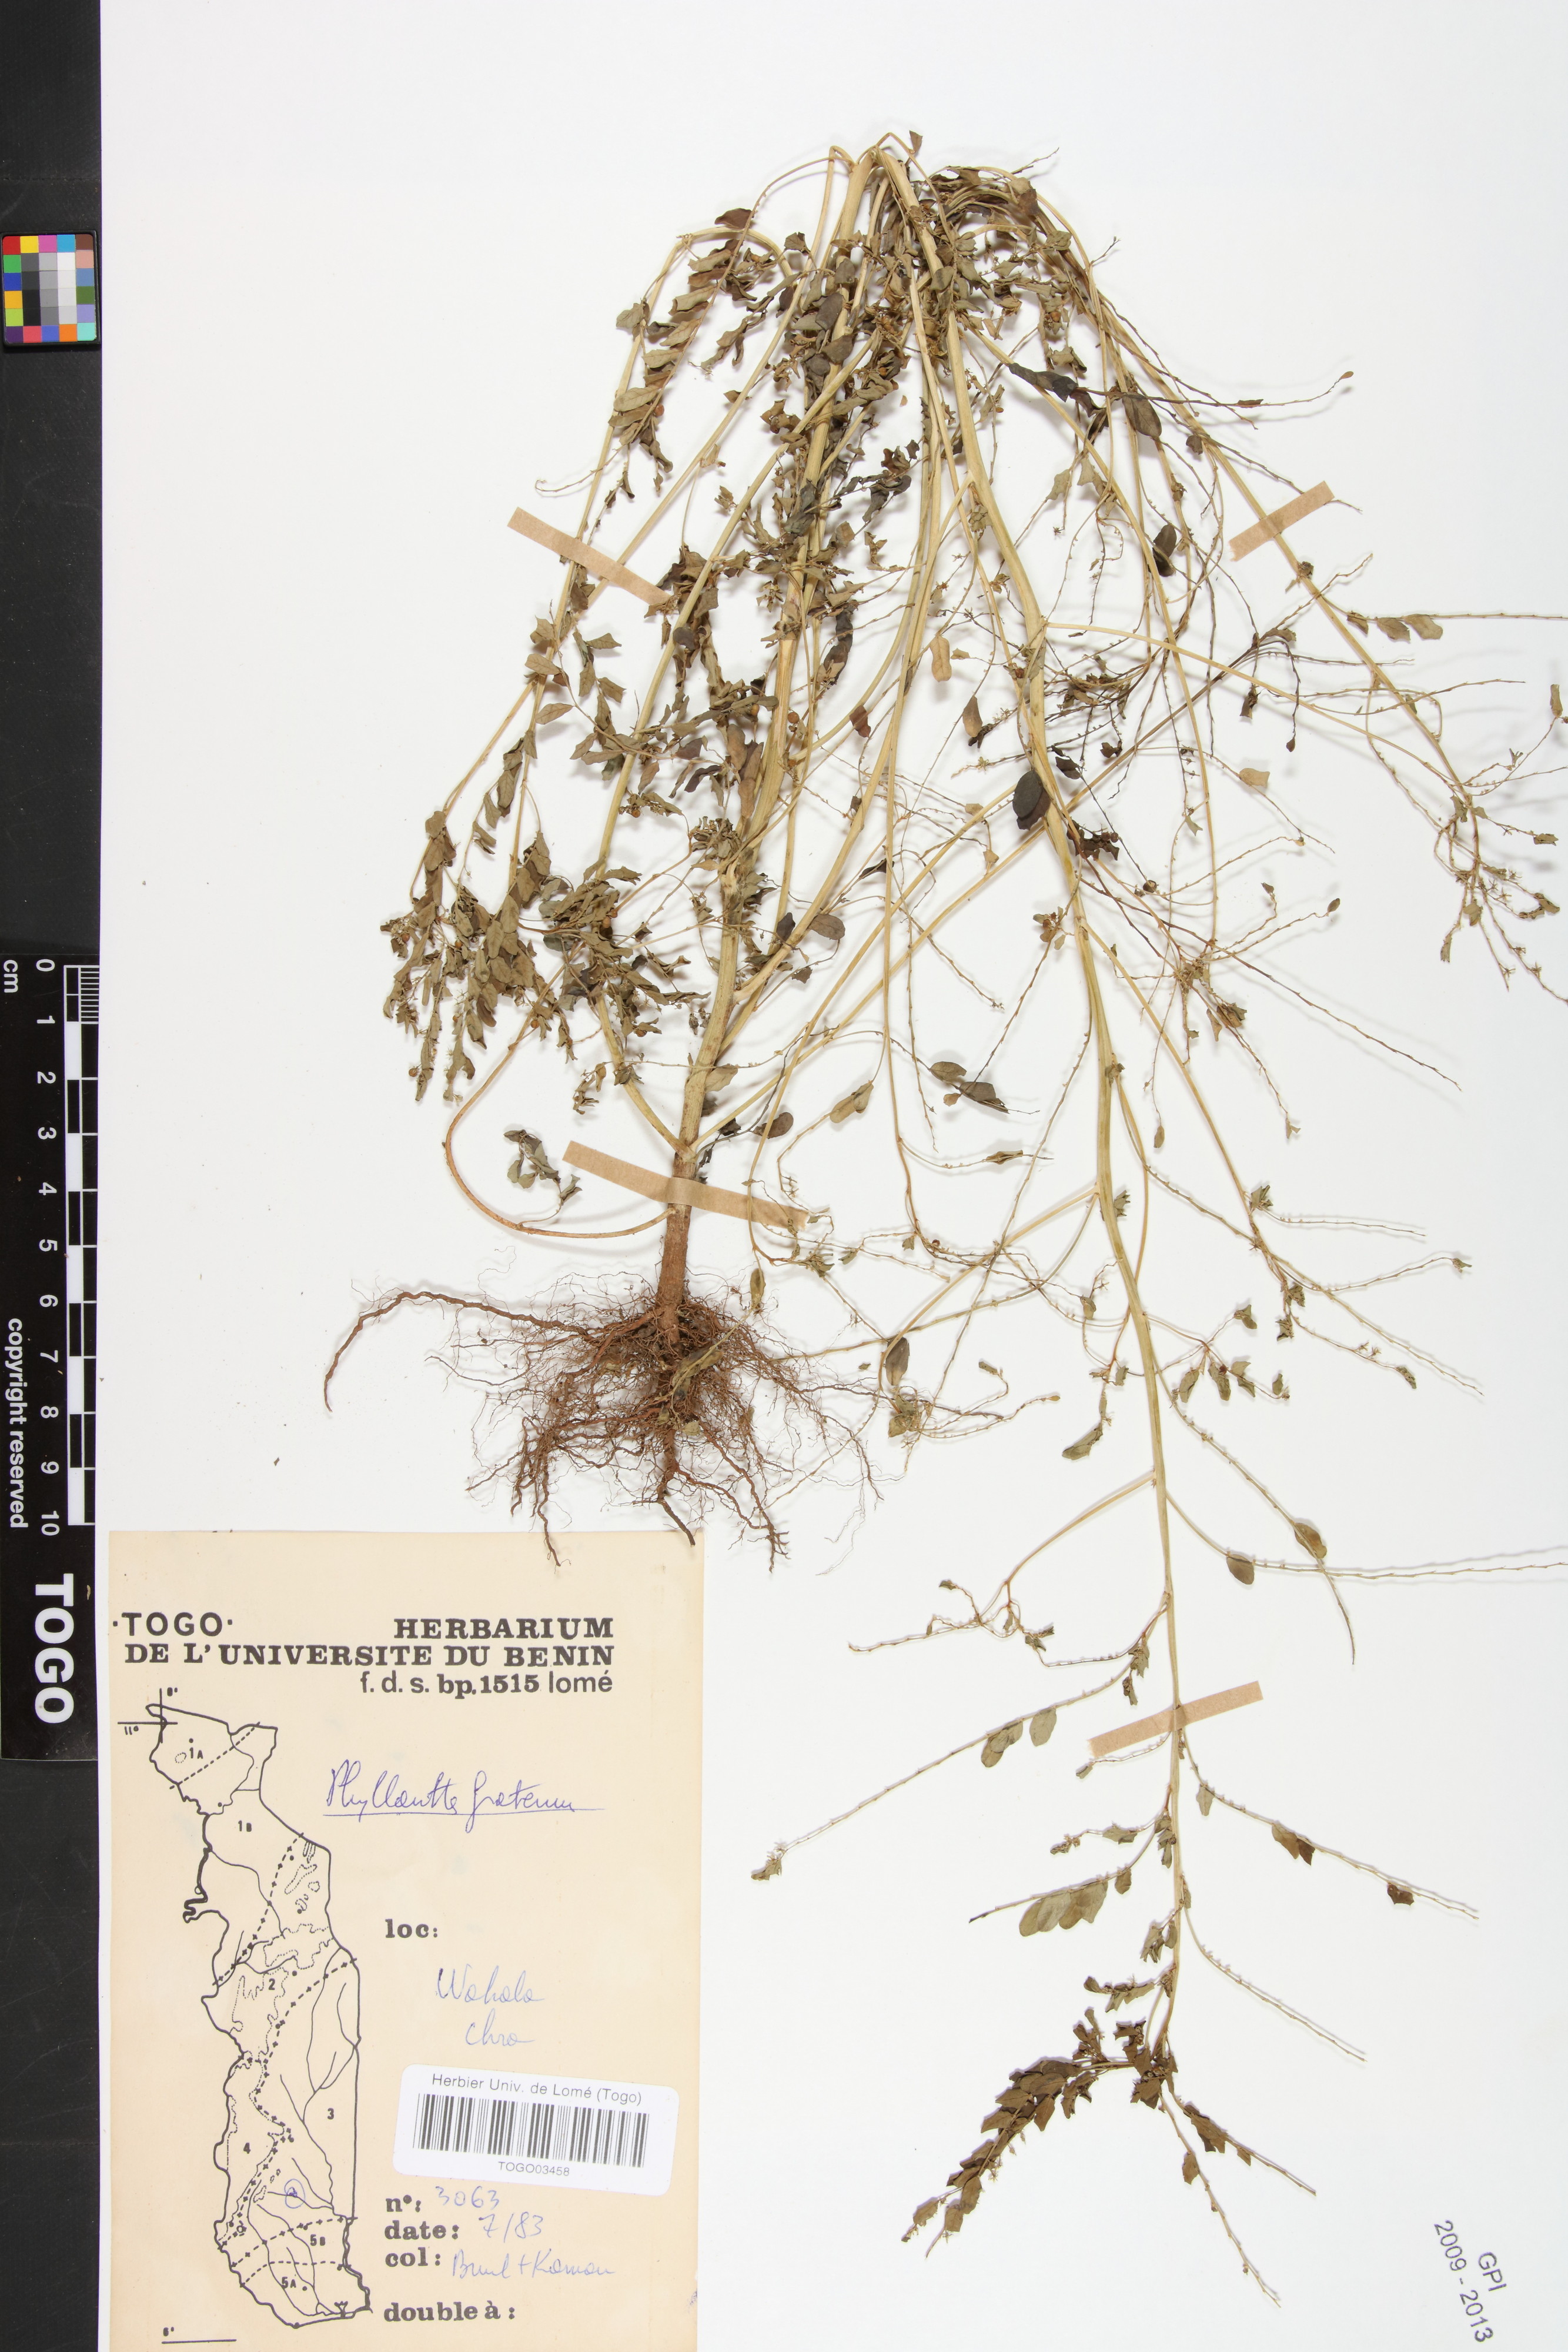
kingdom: Plantae
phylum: Tracheophyta
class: Magnoliopsida
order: Malpighiales
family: Phyllanthaceae
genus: Phyllanthus
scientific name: Phyllanthus fraternus
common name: Gulf leaf-flower
